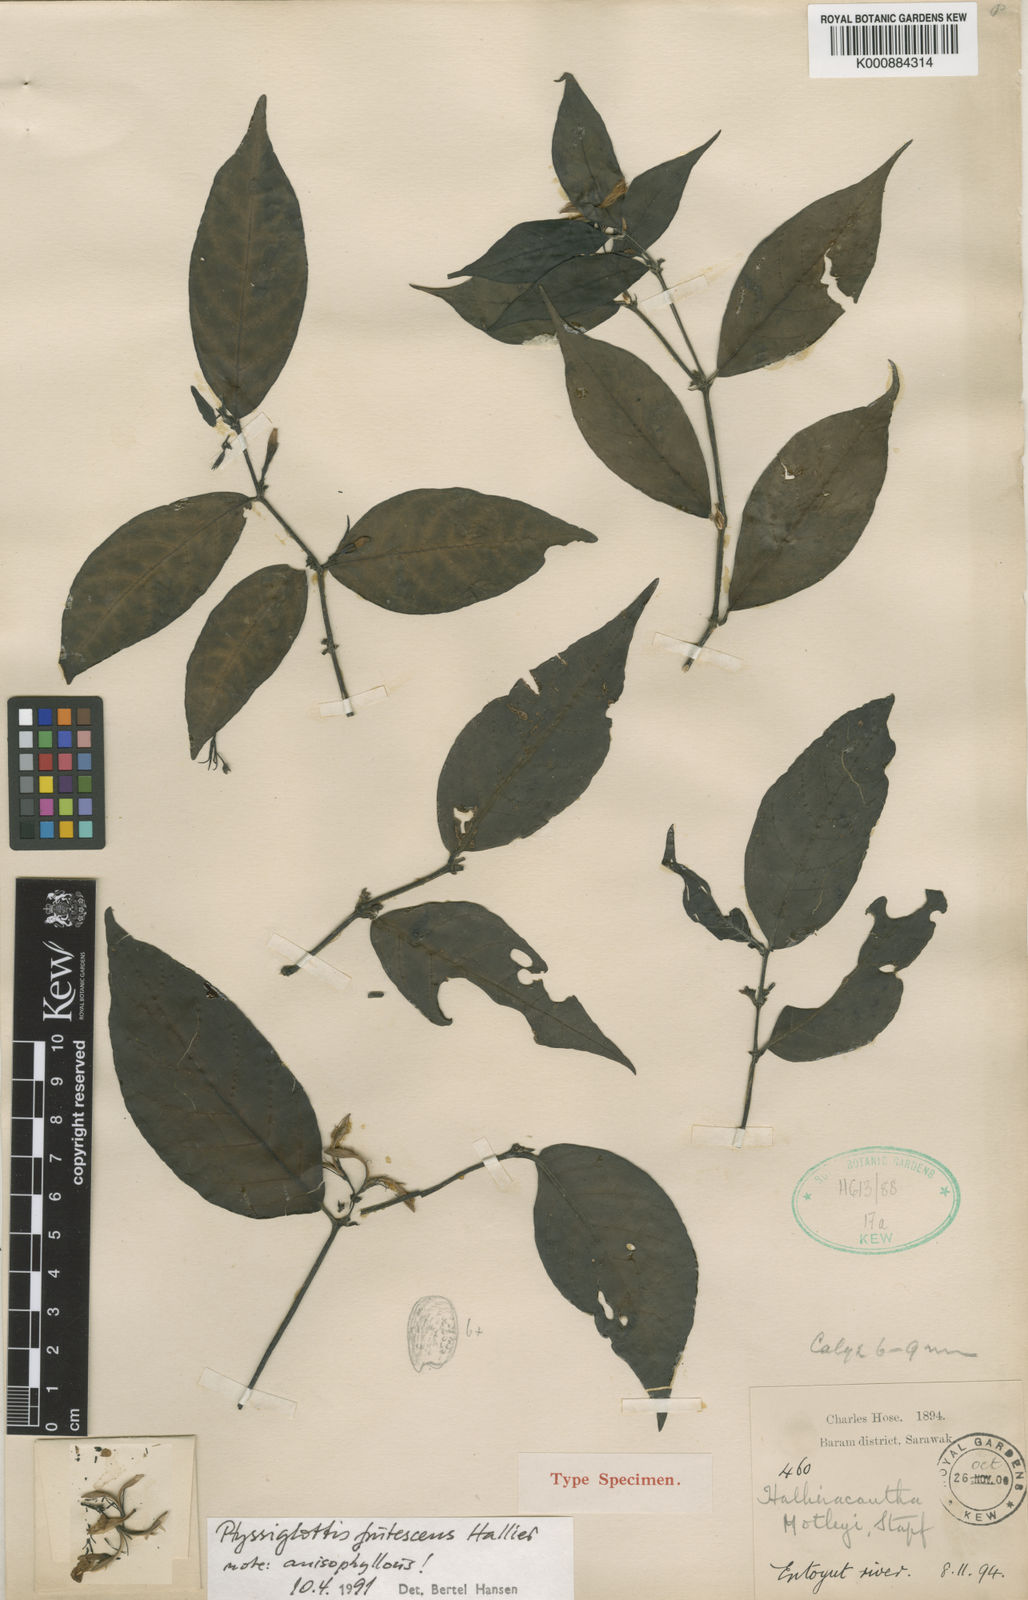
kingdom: Plantae
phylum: Tracheophyta
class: Magnoliopsida
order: Lamiales
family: Acanthaceae
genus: Ptyssiglottis
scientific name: Ptyssiglottis lanceolata
